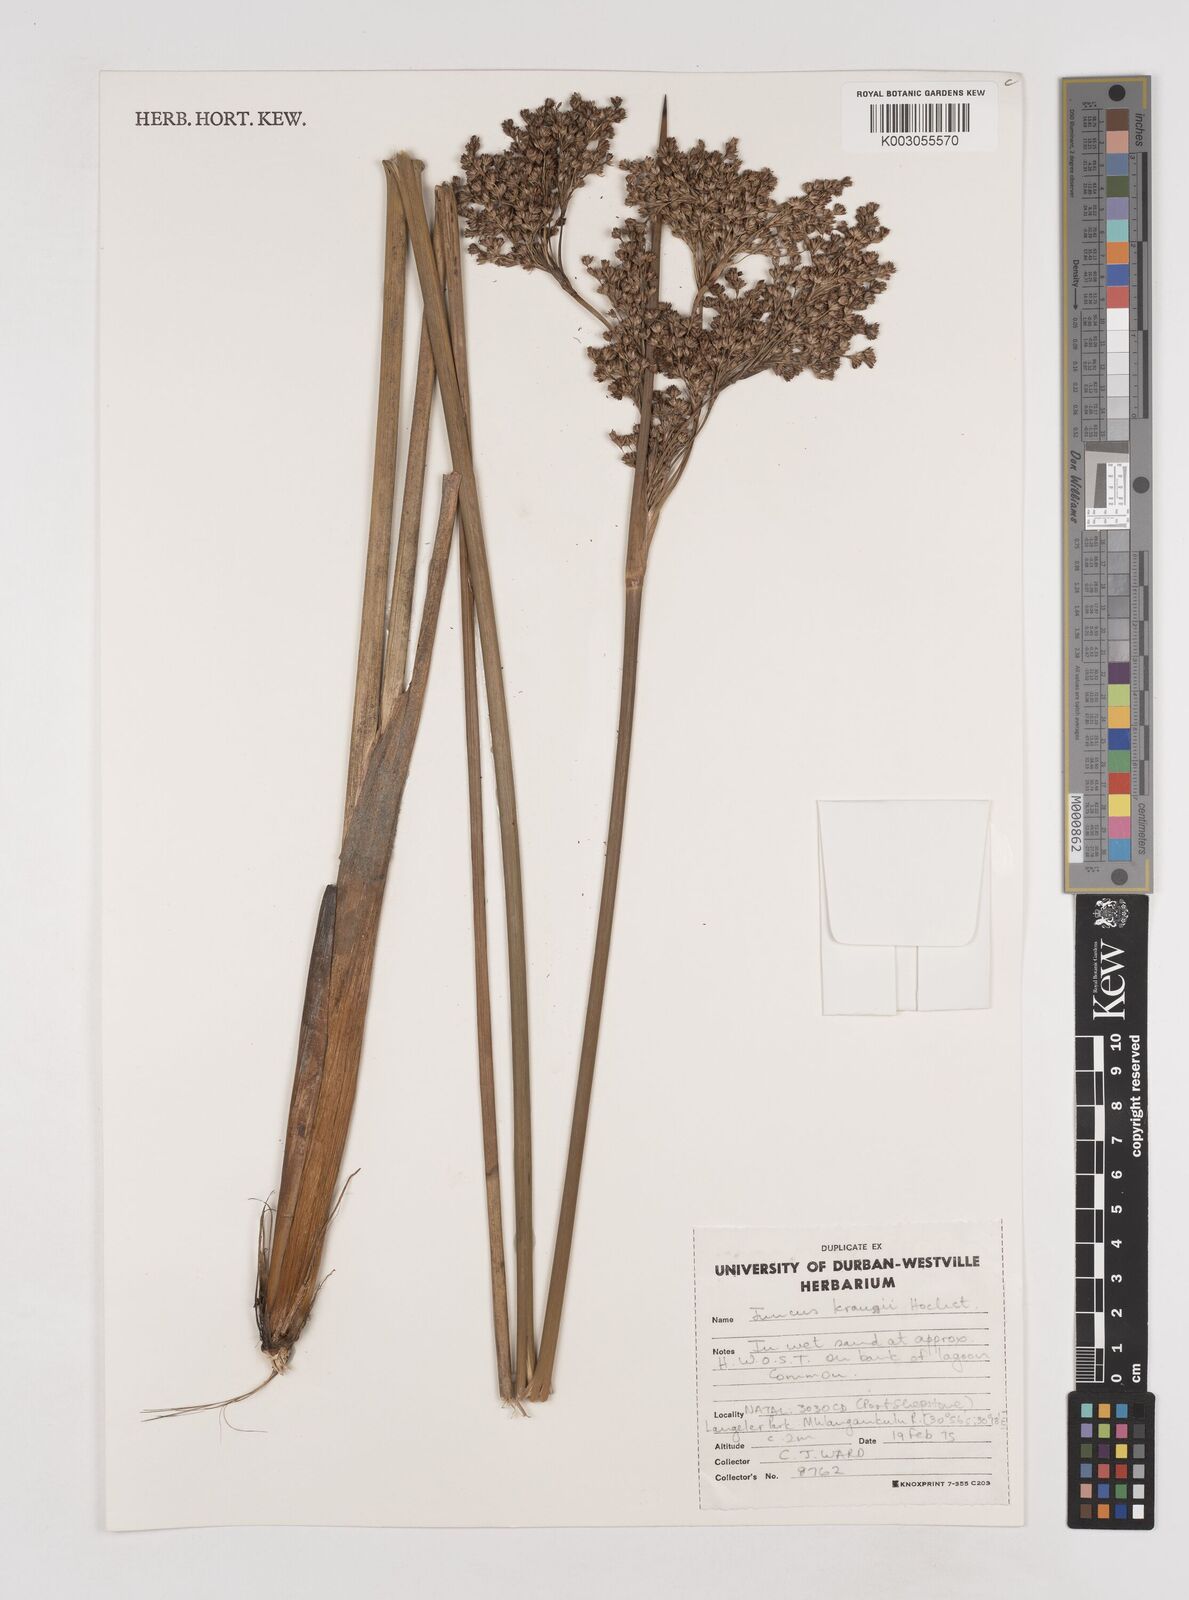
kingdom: Plantae
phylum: Tracheophyta
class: Liliopsida
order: Poales
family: Juncaceae
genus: Juncus
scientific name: Juncus kraussii
